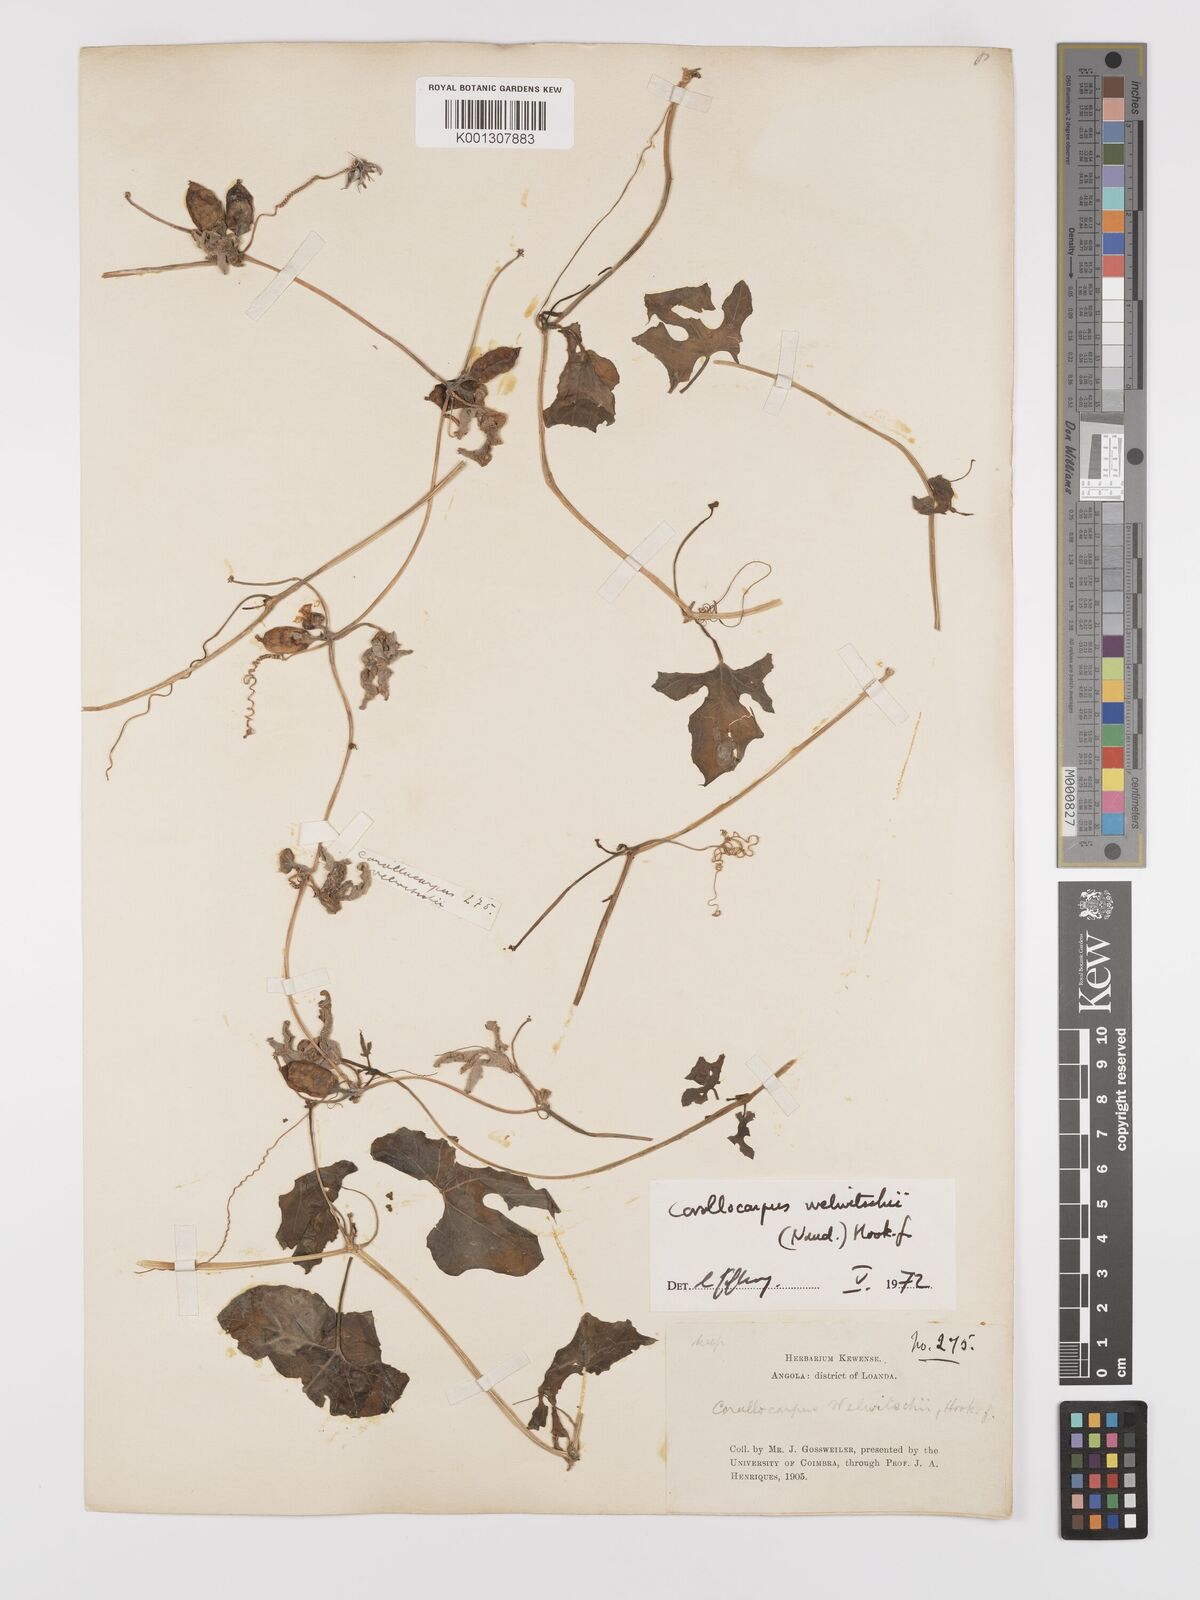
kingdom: Plantae
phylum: Tracheophyta
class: Magnoliopsida
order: Cucurbitales
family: Cucurbitaceae
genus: Corallocarpus
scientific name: Corallocarpus
